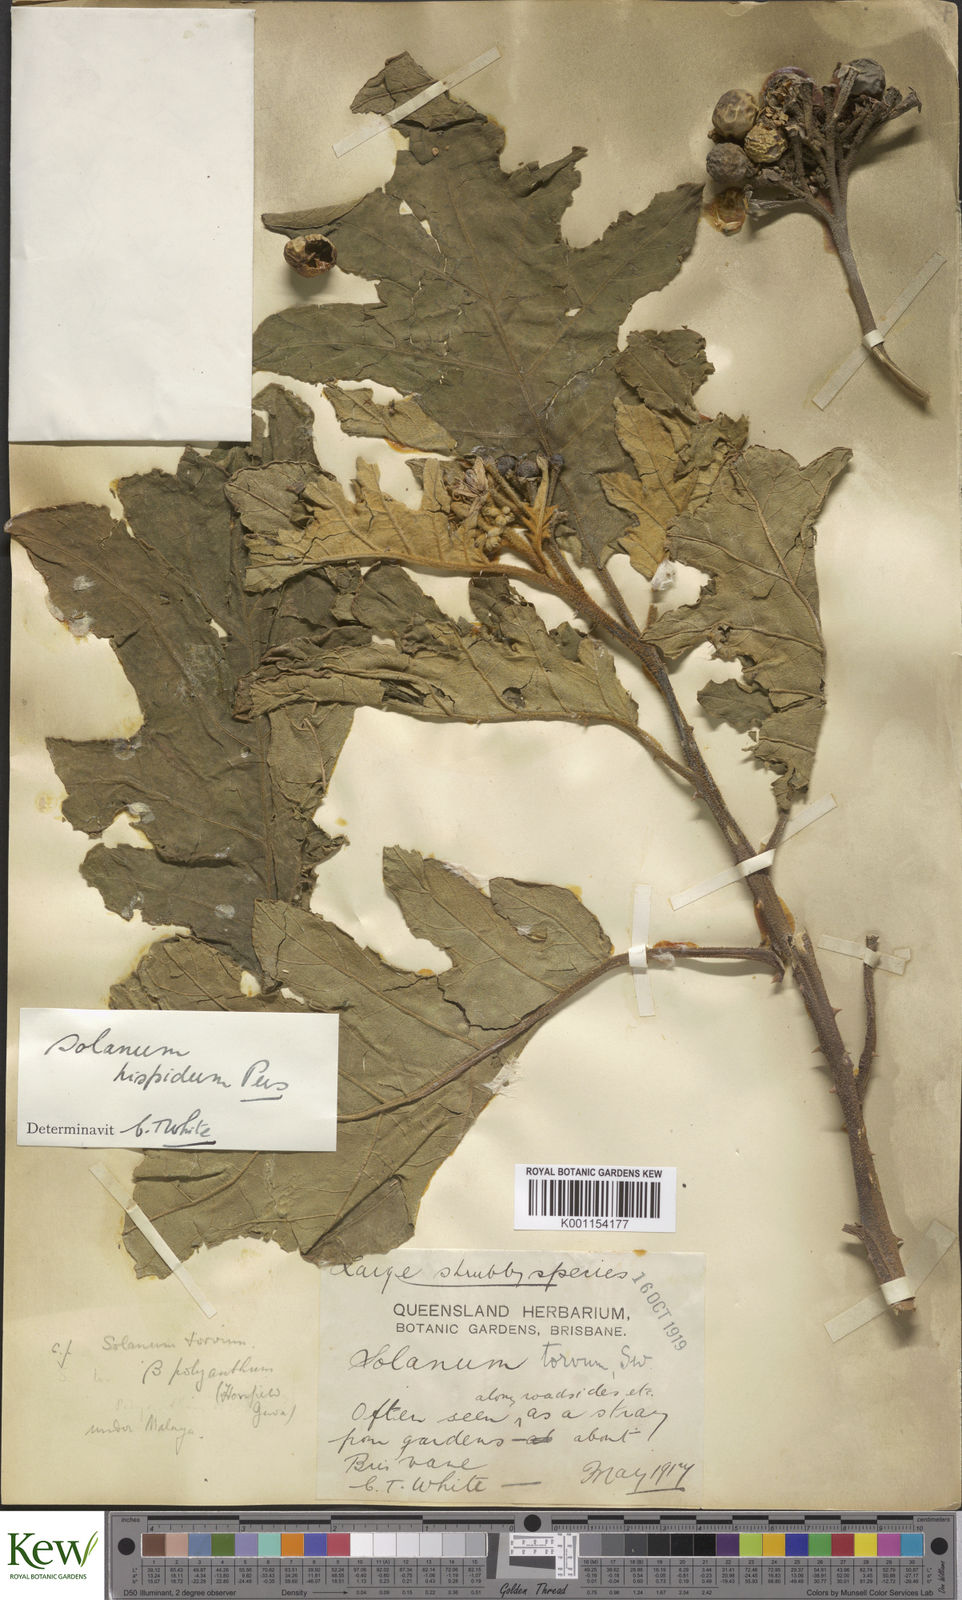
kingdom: Plantae
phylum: Tracheophyta
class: Magnoliopsida
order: Solanales
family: Solanaceae
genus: Solanum
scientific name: Solanum asperolanatum
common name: Devil's-fig
